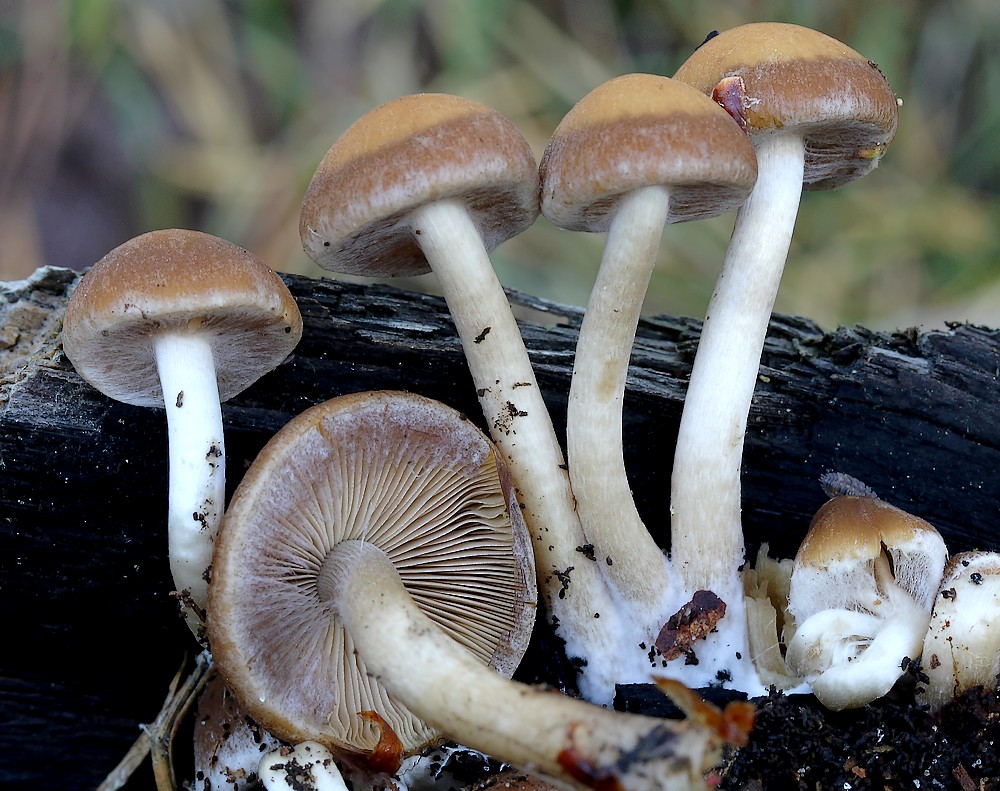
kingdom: Fungi
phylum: Basidiomycota
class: Agaricomycetes
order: Agaricales
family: Psathyrellaceae
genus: Psathyrella
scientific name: Psathyrella piluliformis
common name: lysstokket mørkhat
